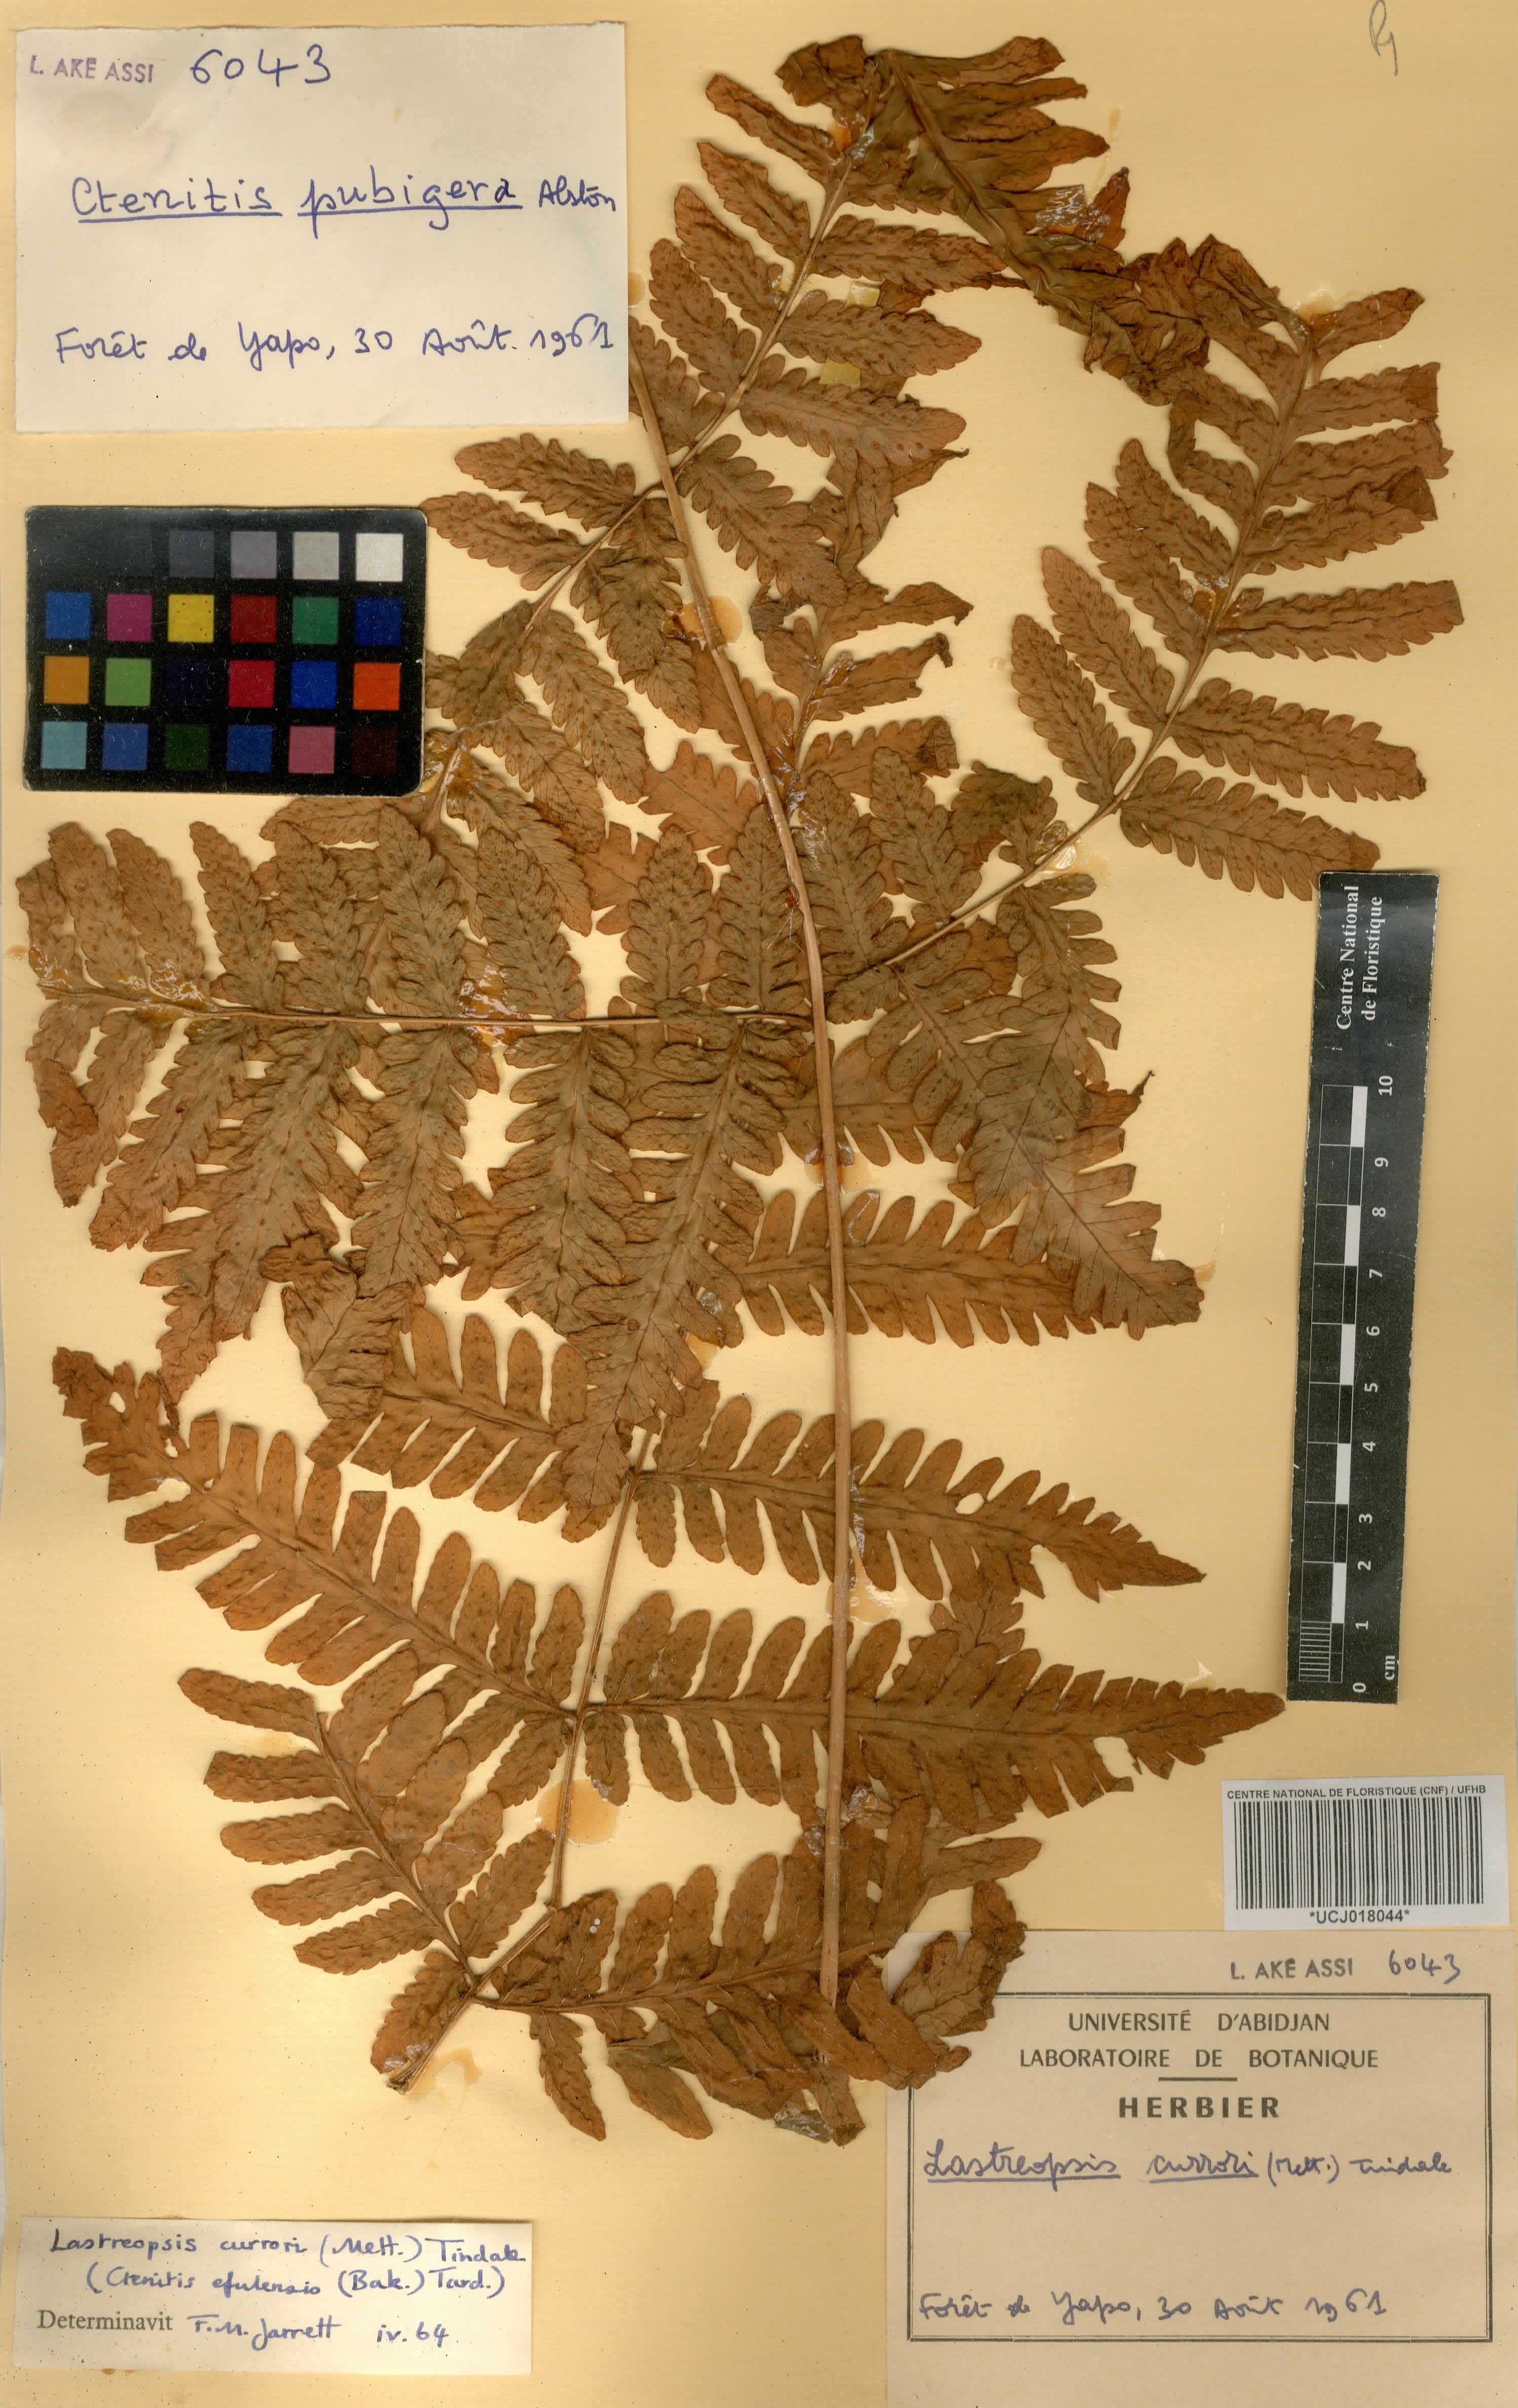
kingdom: Plantae
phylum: Tracheophyta
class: Polypodiopsida
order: Polypodiales
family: Dryopteridaceae
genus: Parapolystichum
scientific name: Parapolystichum currorii
